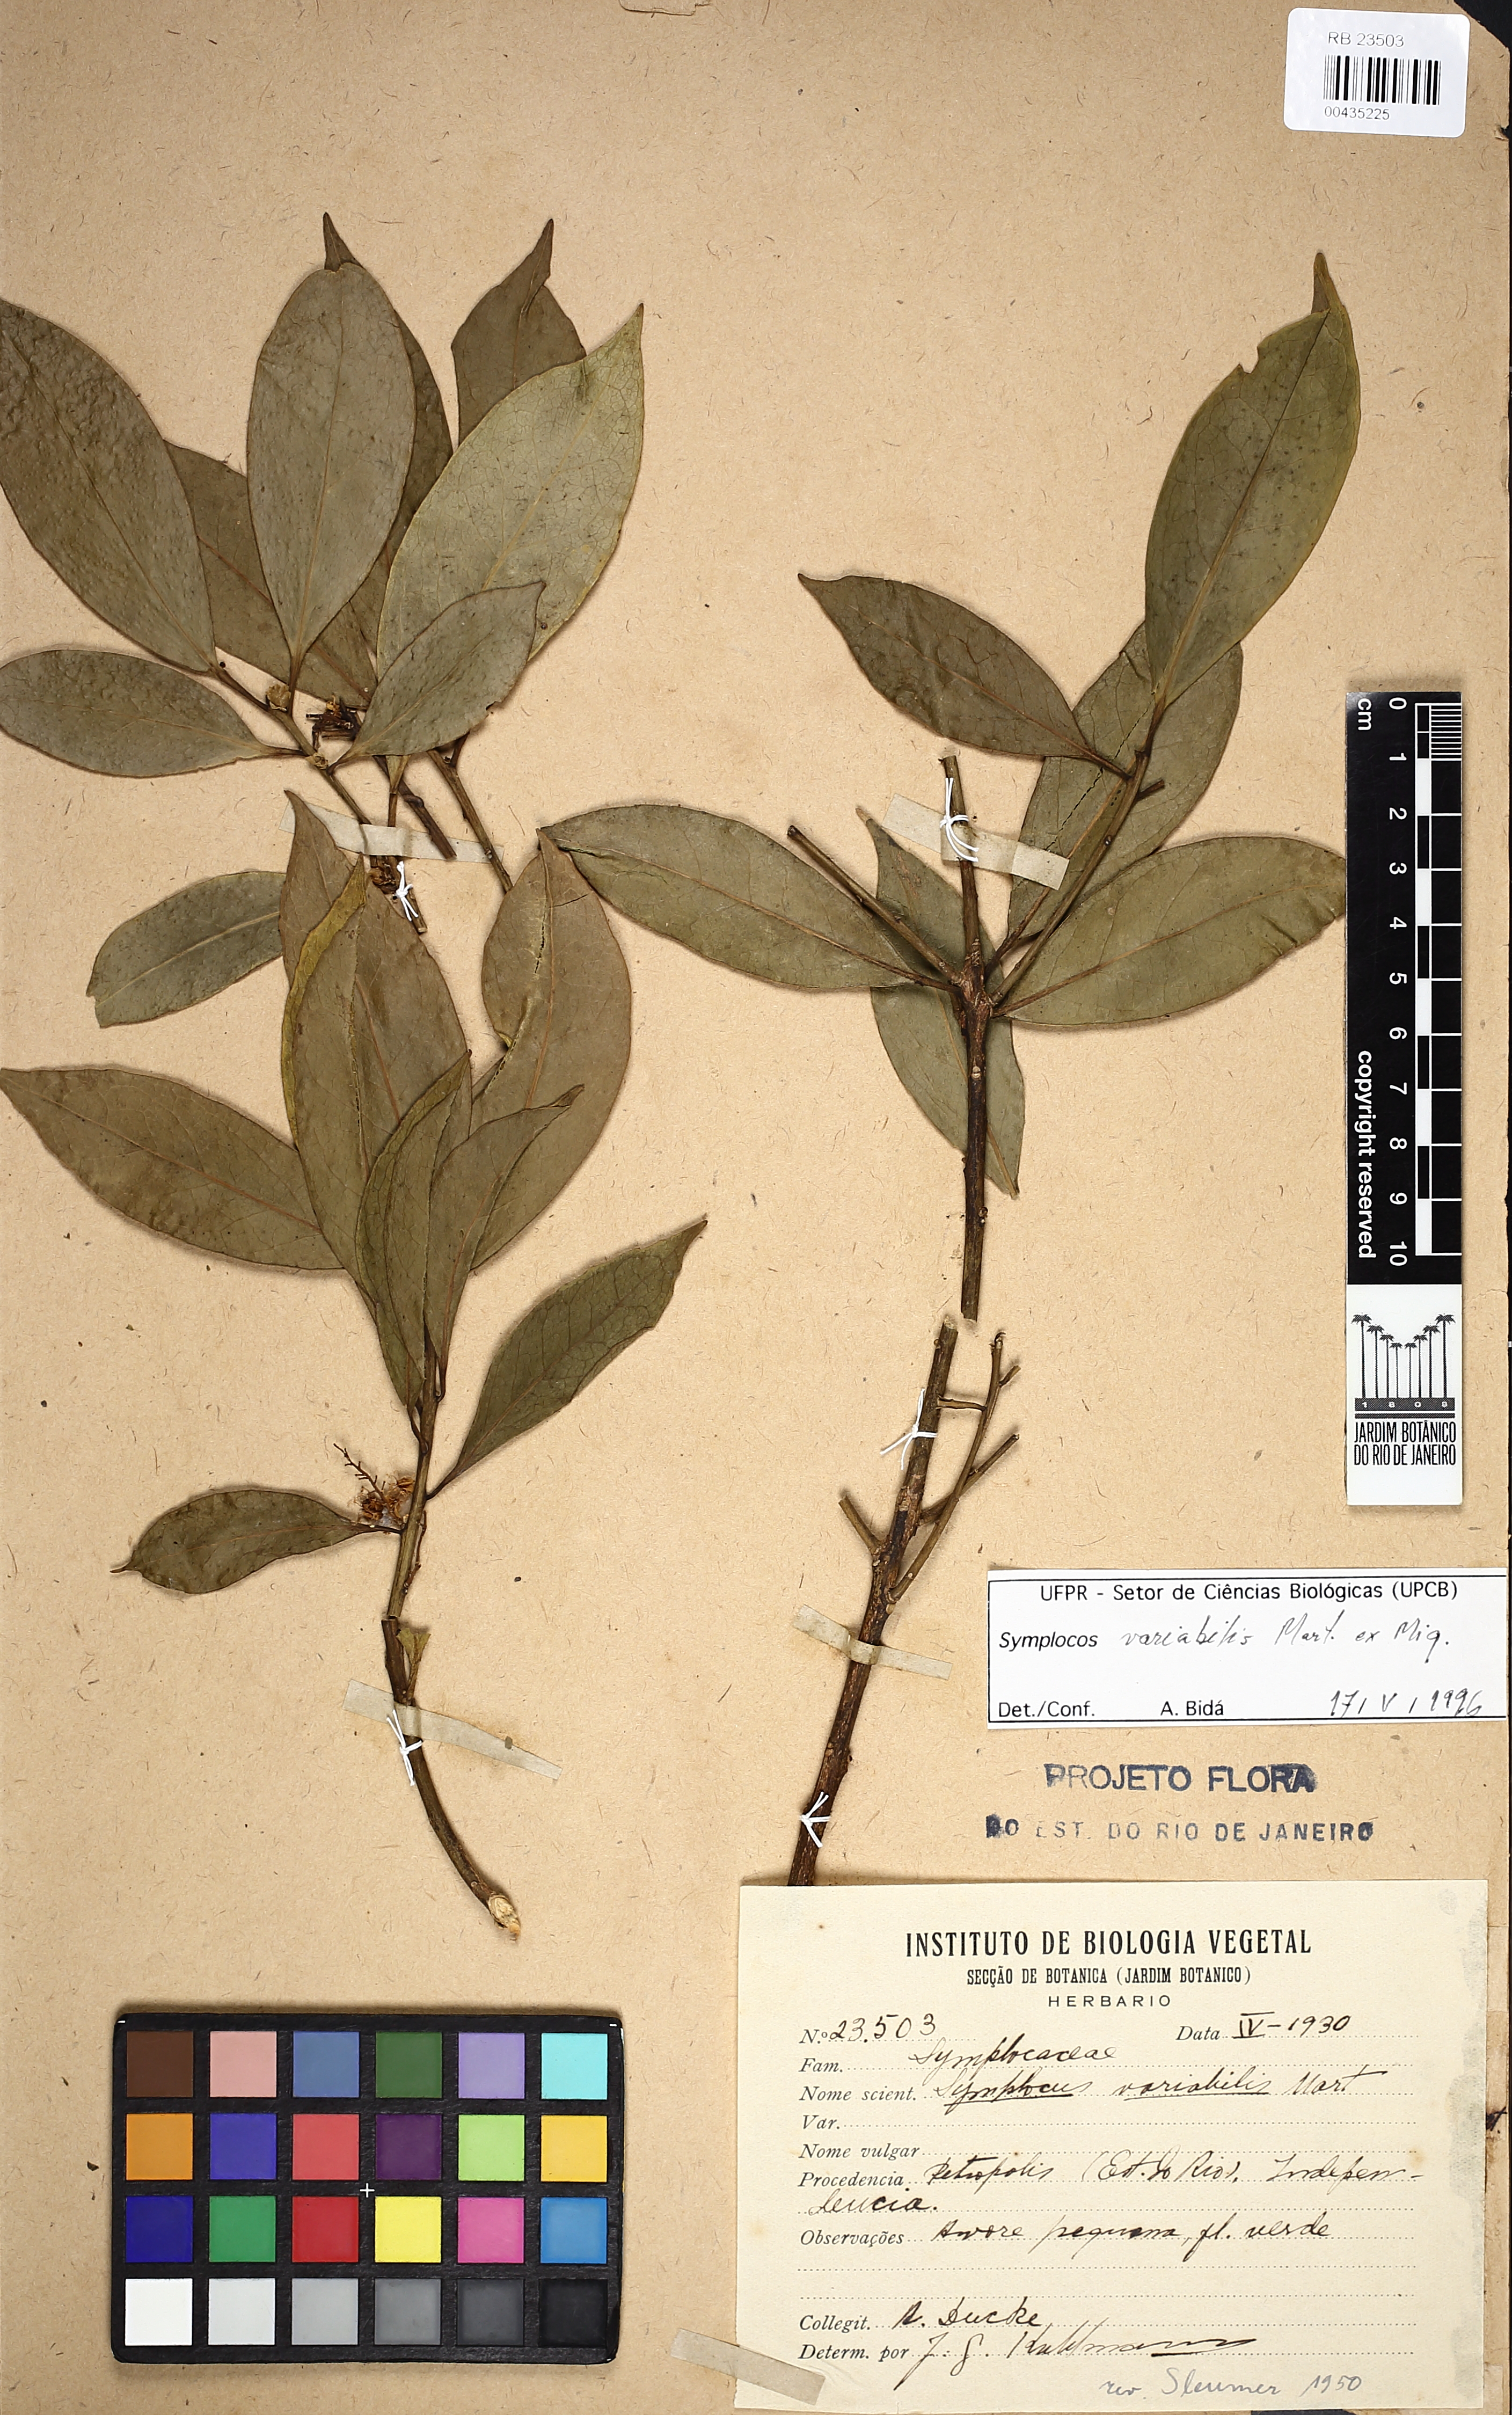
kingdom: Plantae
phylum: Tracheophyta
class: Magnoliopsida
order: Ericales
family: Symplocaceae
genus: Symplocos
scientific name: Symplocos estrellensis
